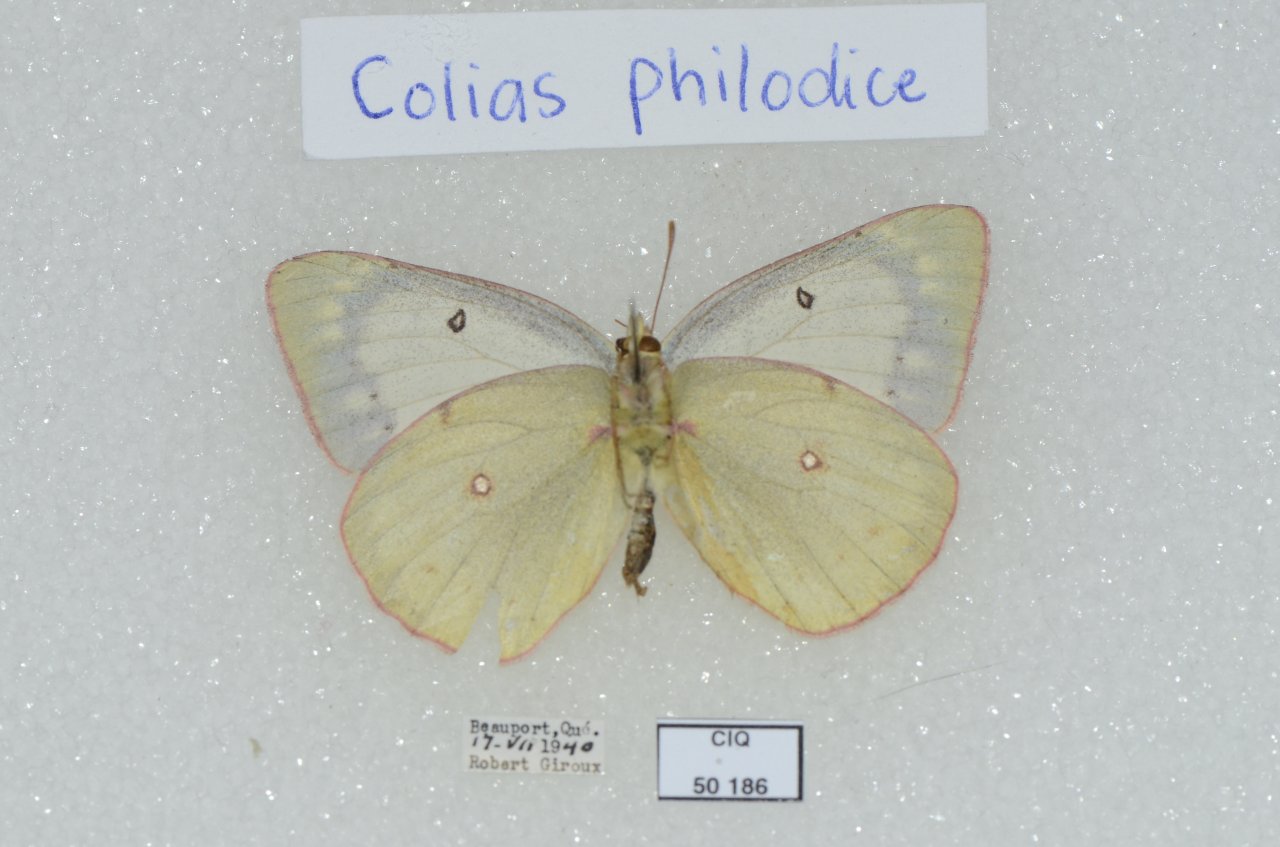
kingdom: Animalia
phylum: Arthropoda
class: Insecta
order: Lepidoptera
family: Pieridae
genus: Colias
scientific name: Colias philodice
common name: Clouded Sulphur
